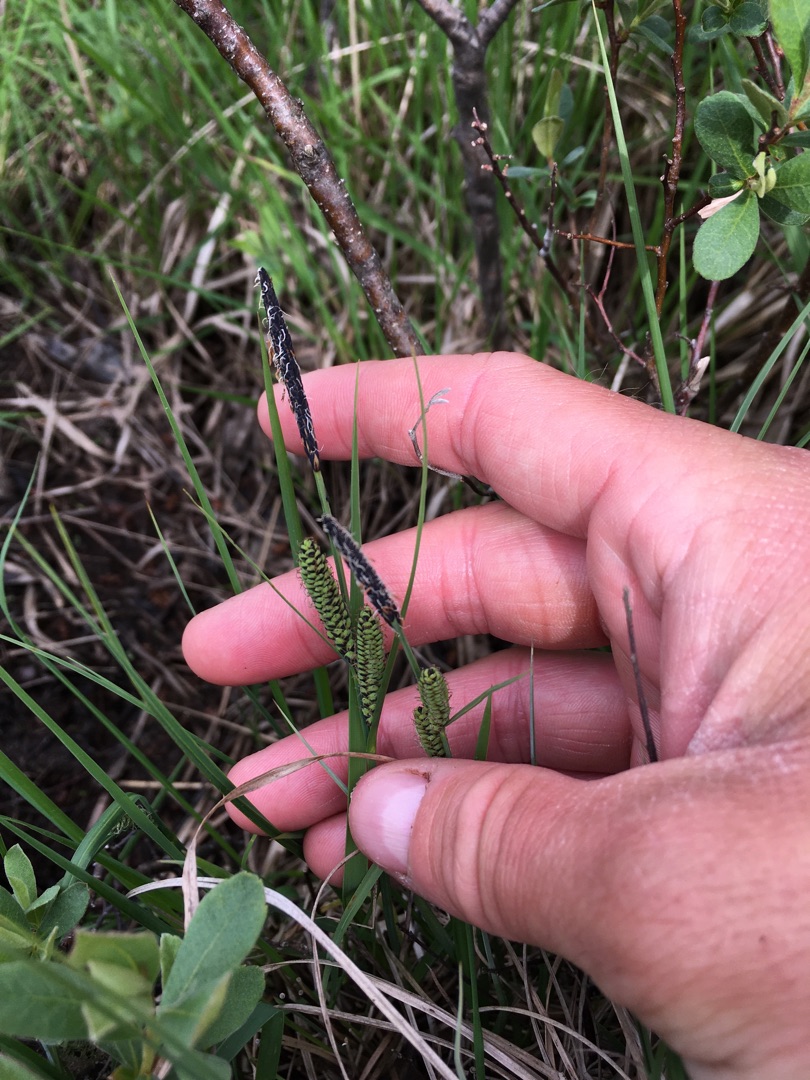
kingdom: Plantae
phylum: Tracheophyta
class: Liliopsida
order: Poales
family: Cyperaceae
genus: Carex
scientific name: Carex nigra
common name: Almindelig star
